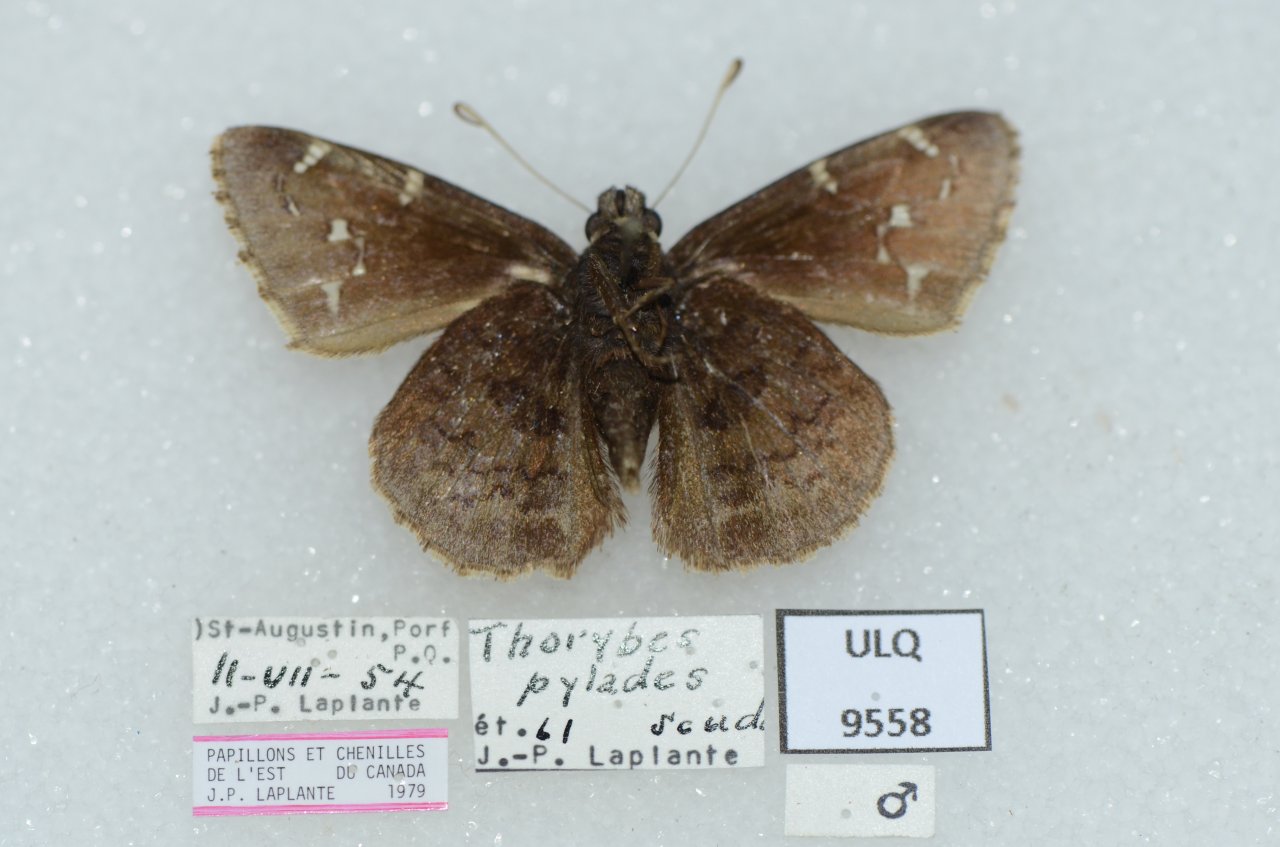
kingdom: Animalia
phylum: Arthropoda
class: Insecta
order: Lepidoptera
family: Hesperiidae
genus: Autochton
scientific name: Autochton
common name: Northern Cloudywing
